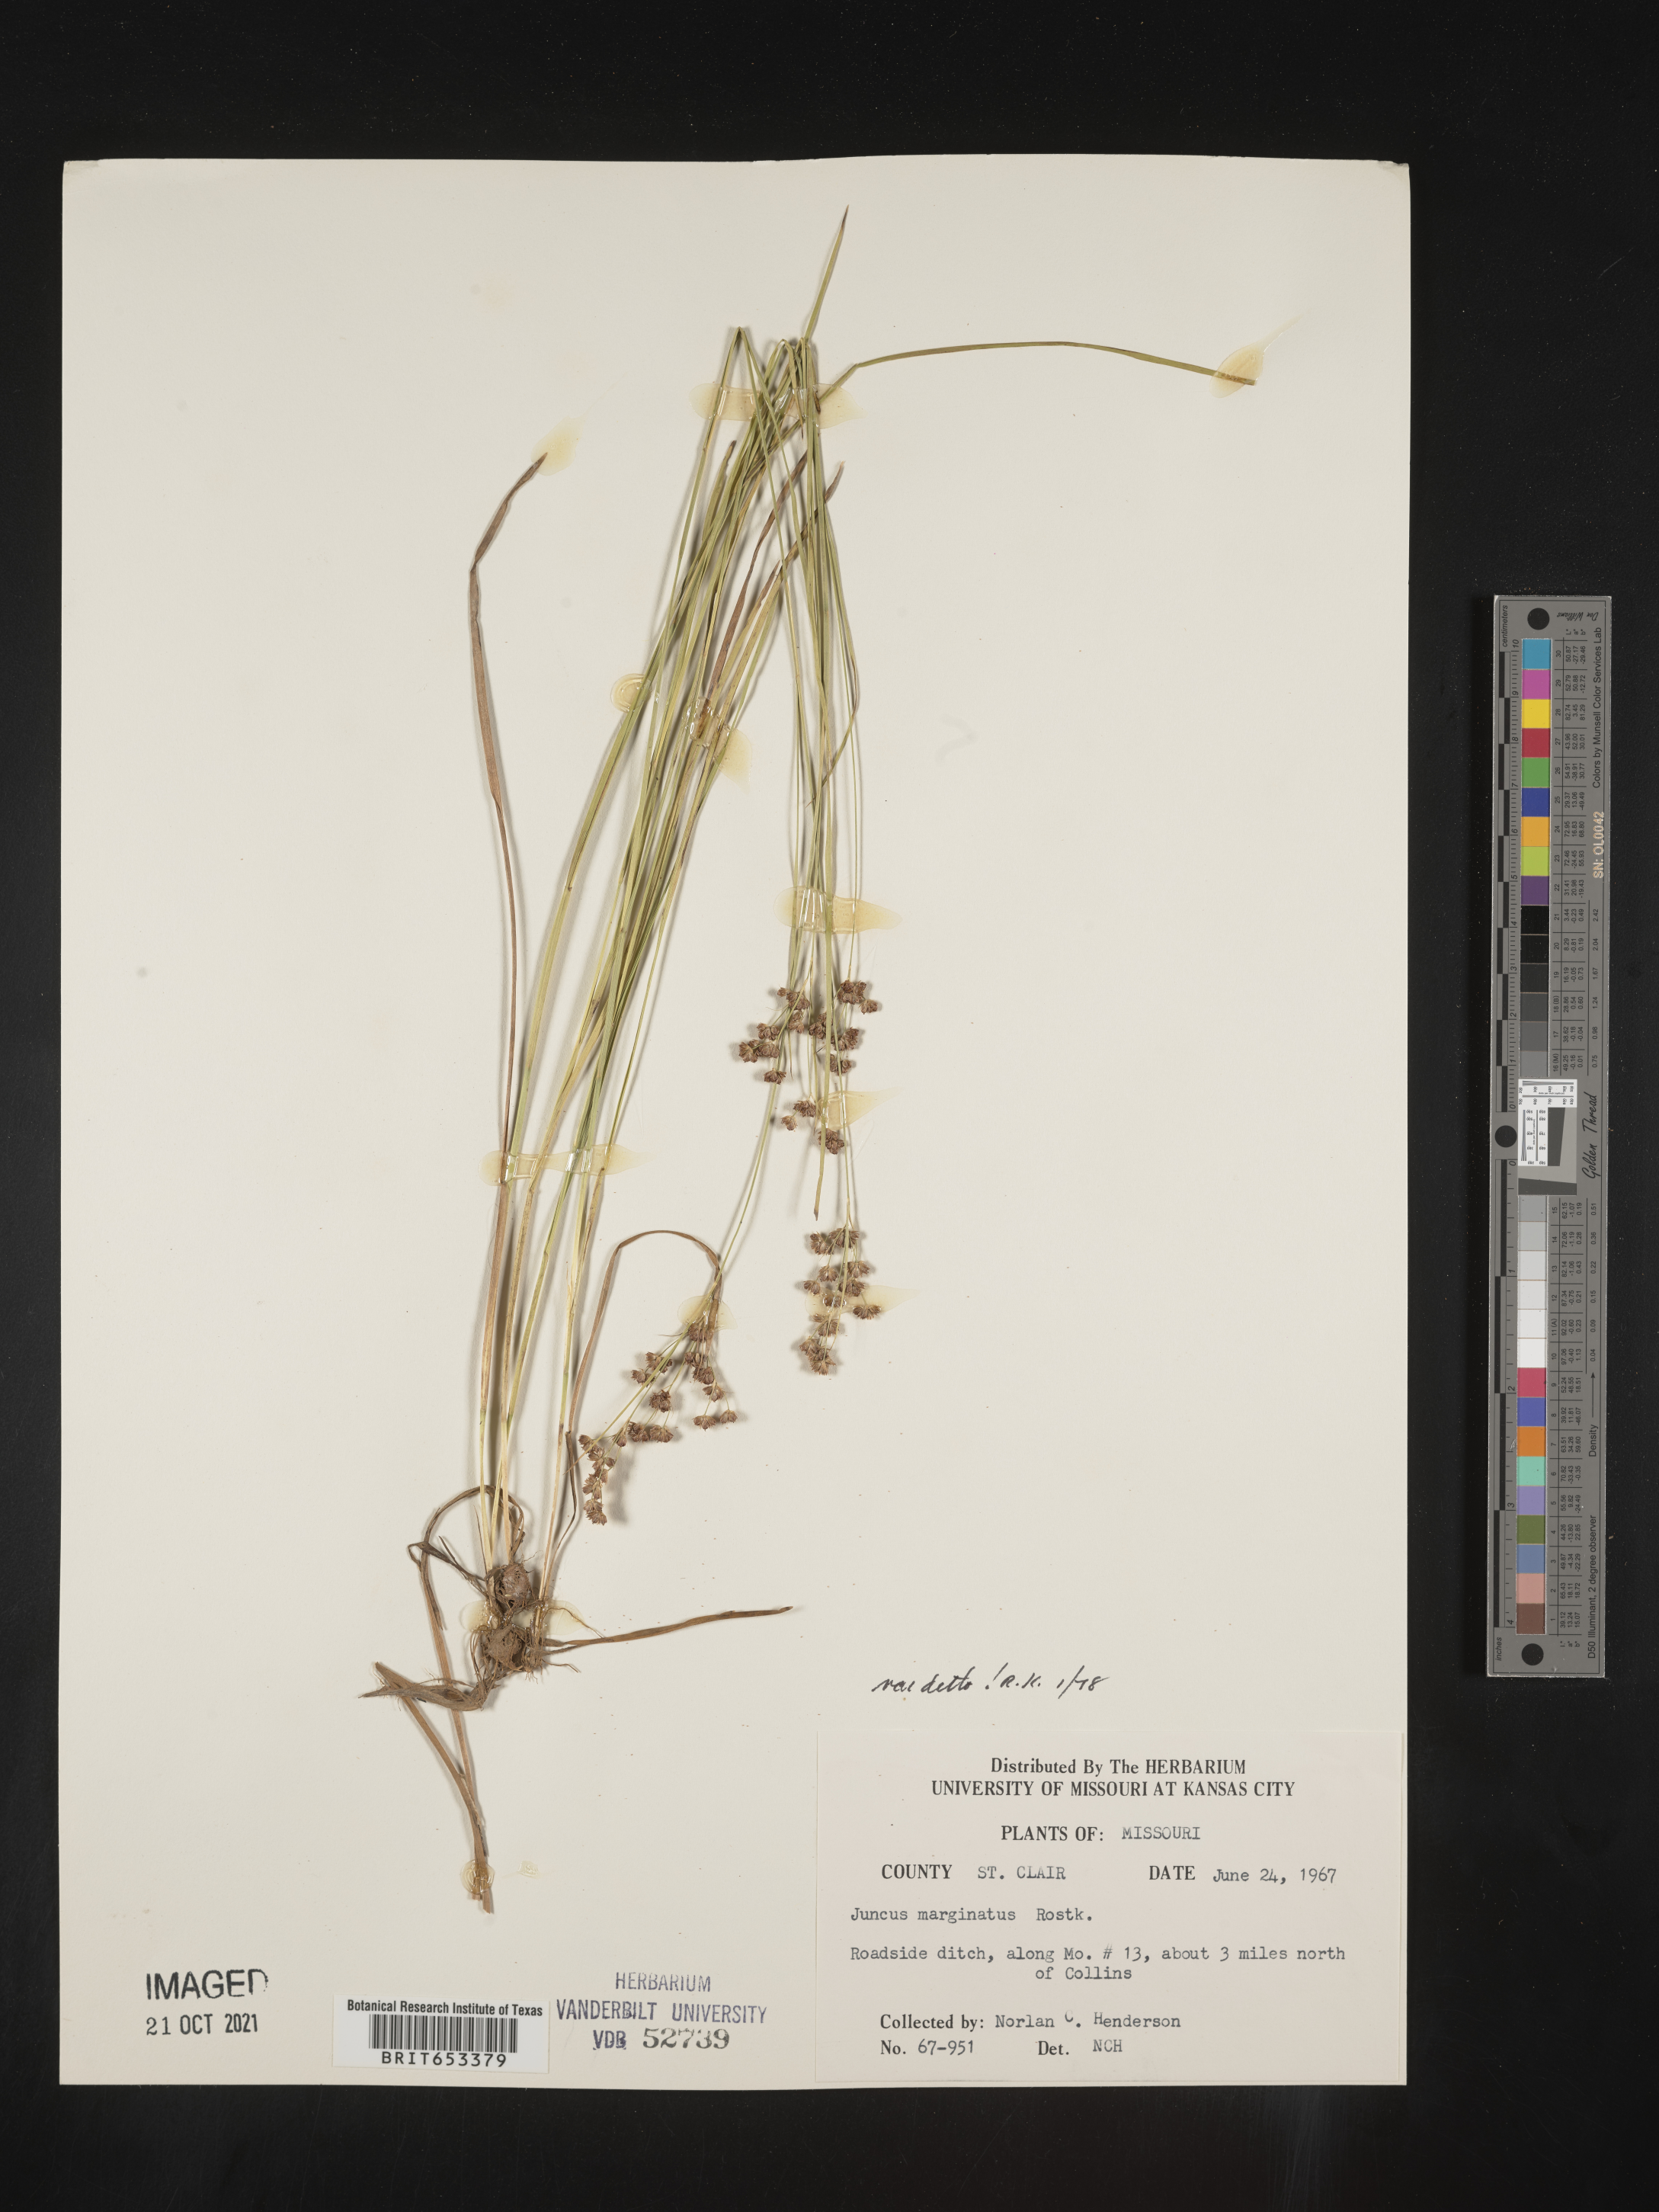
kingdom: Plantae
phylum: Tracheophyta
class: Liliopsida
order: Poales
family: Juncaceae
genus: Juncus
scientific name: Juncus marginatus
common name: Grass-leaf rush
